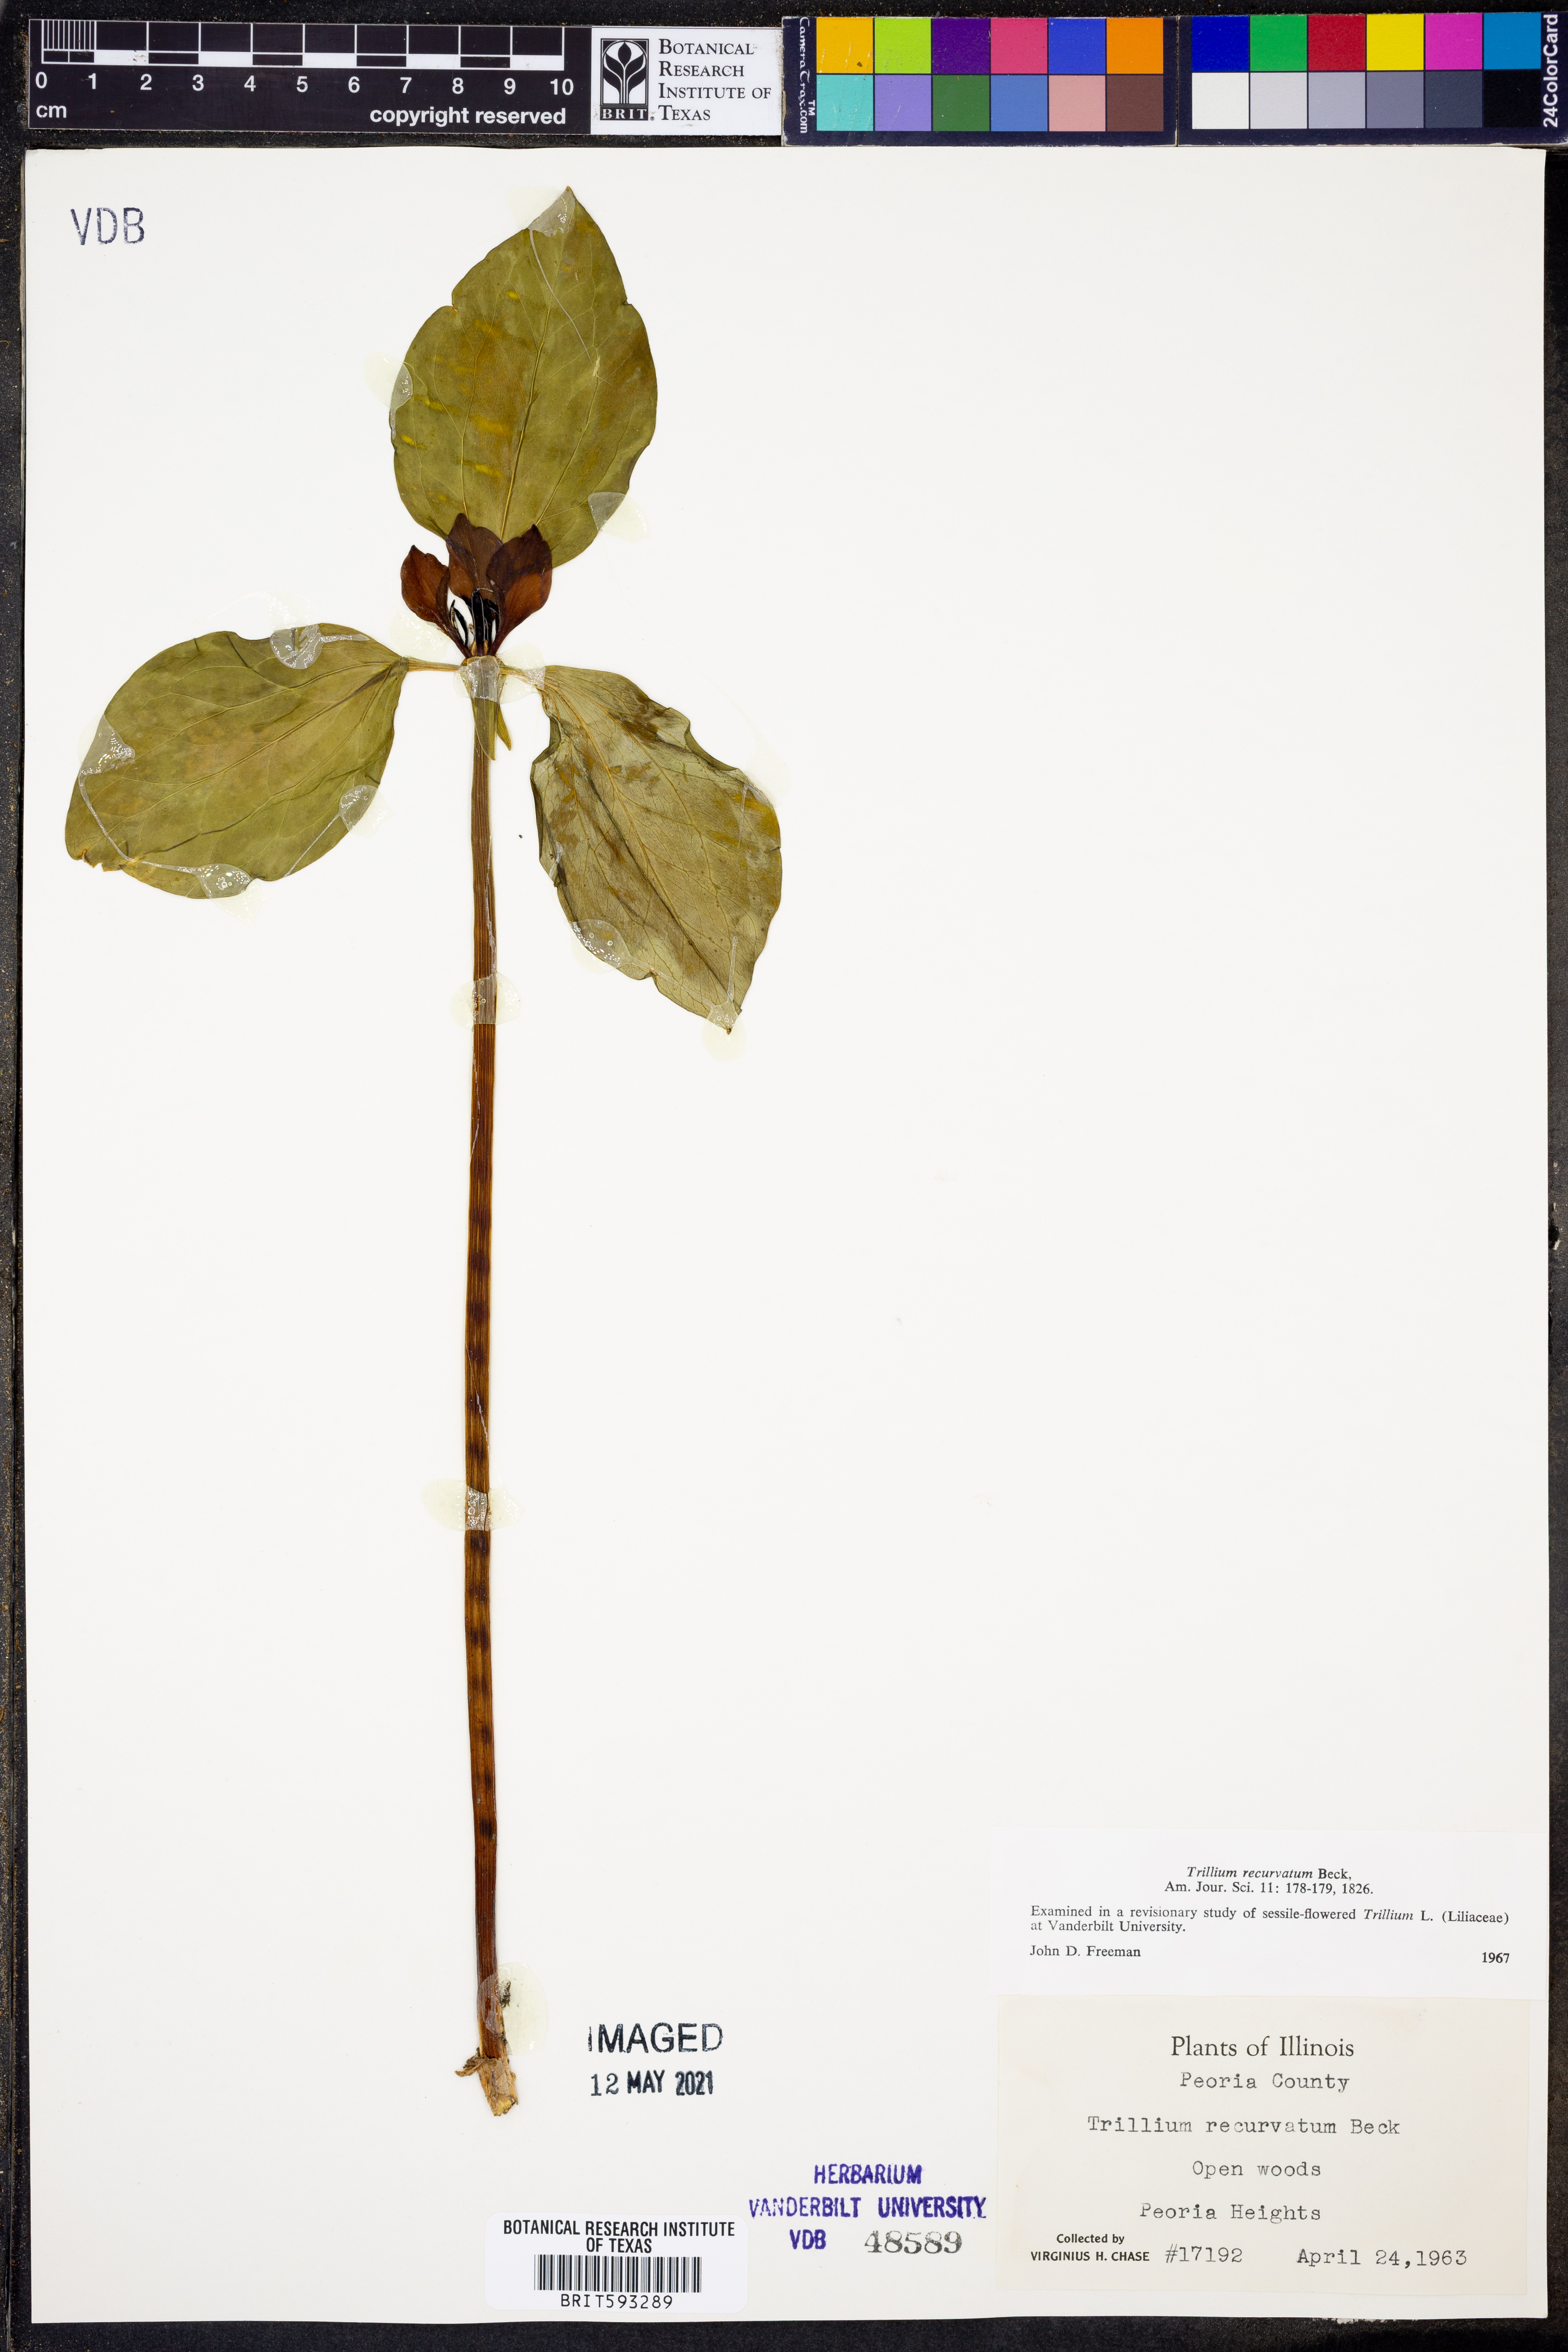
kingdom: Plantae
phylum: Tracheophyta
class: Liliopsida
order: Liliales
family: Melanthiaceae
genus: Trillium
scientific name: Trillium recurvatum
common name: Bloody butcher
